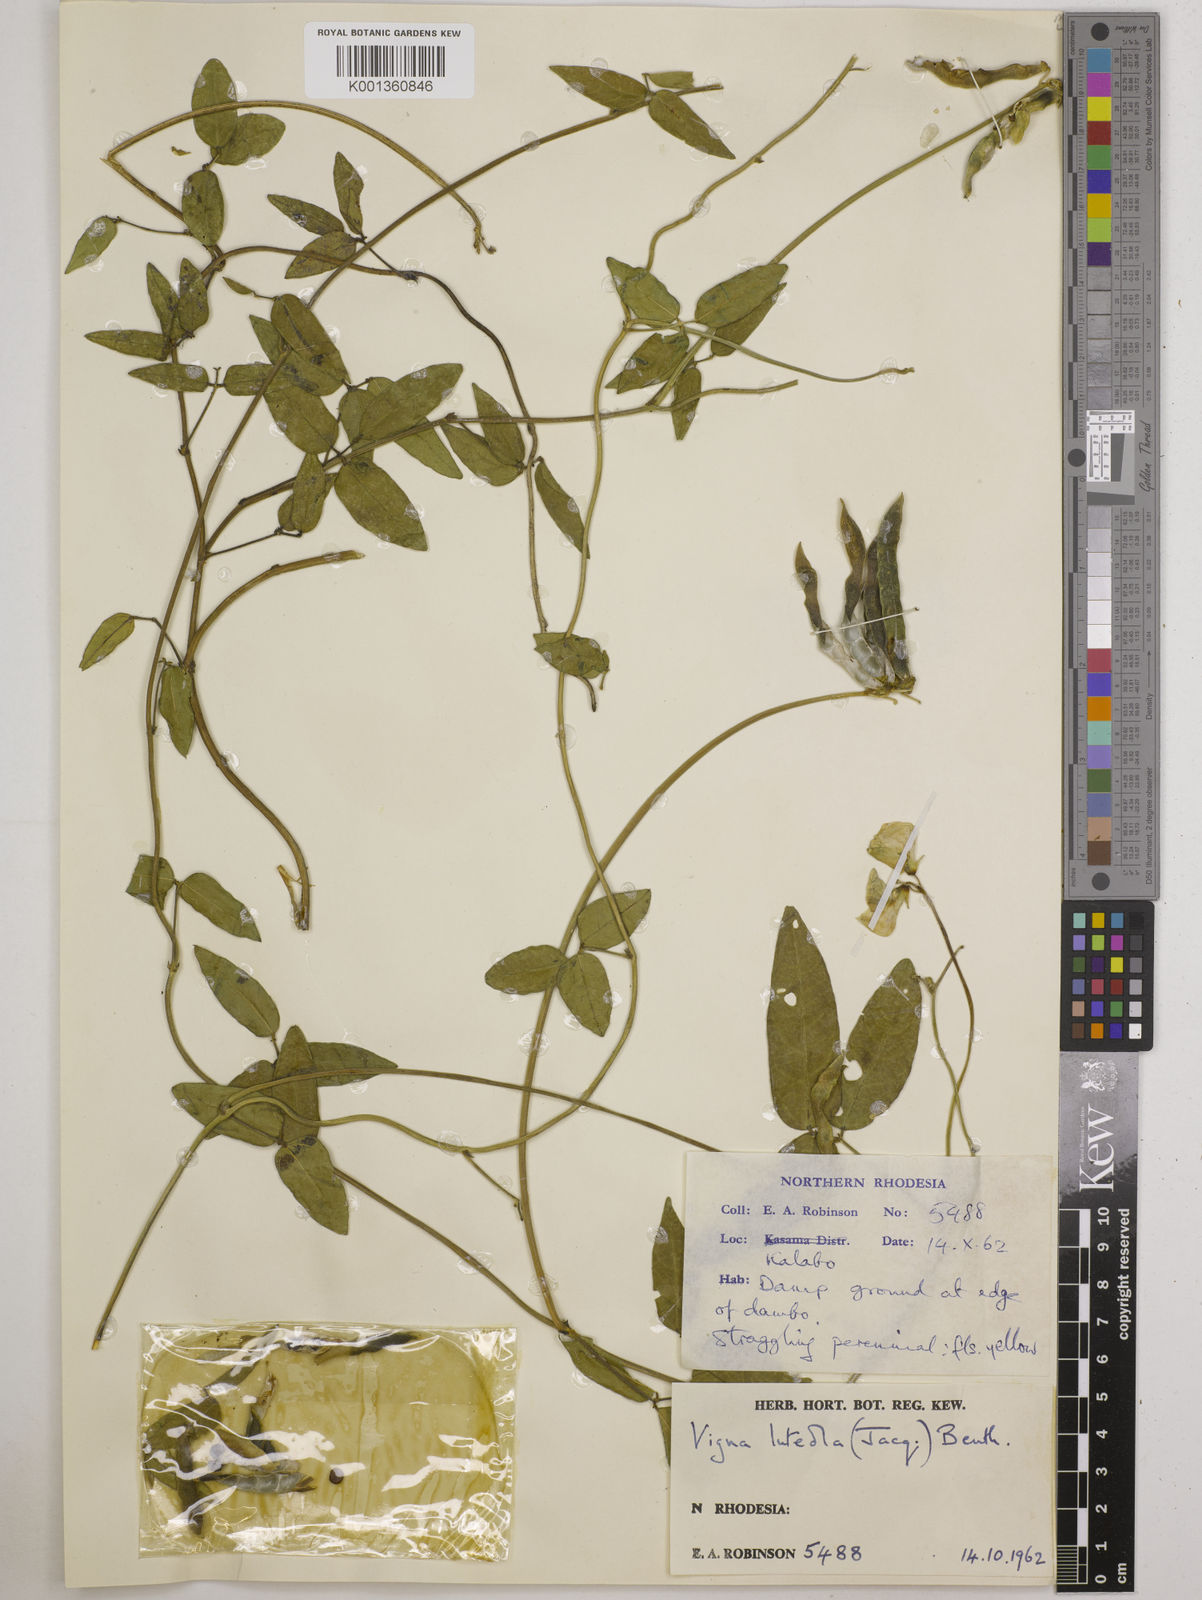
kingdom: Plantae
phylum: Tracheophyta
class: Magnoliopsida
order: Fabales
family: Fabaceae
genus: Vigna
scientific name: Vigna luteola
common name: Hairypod cowpea
